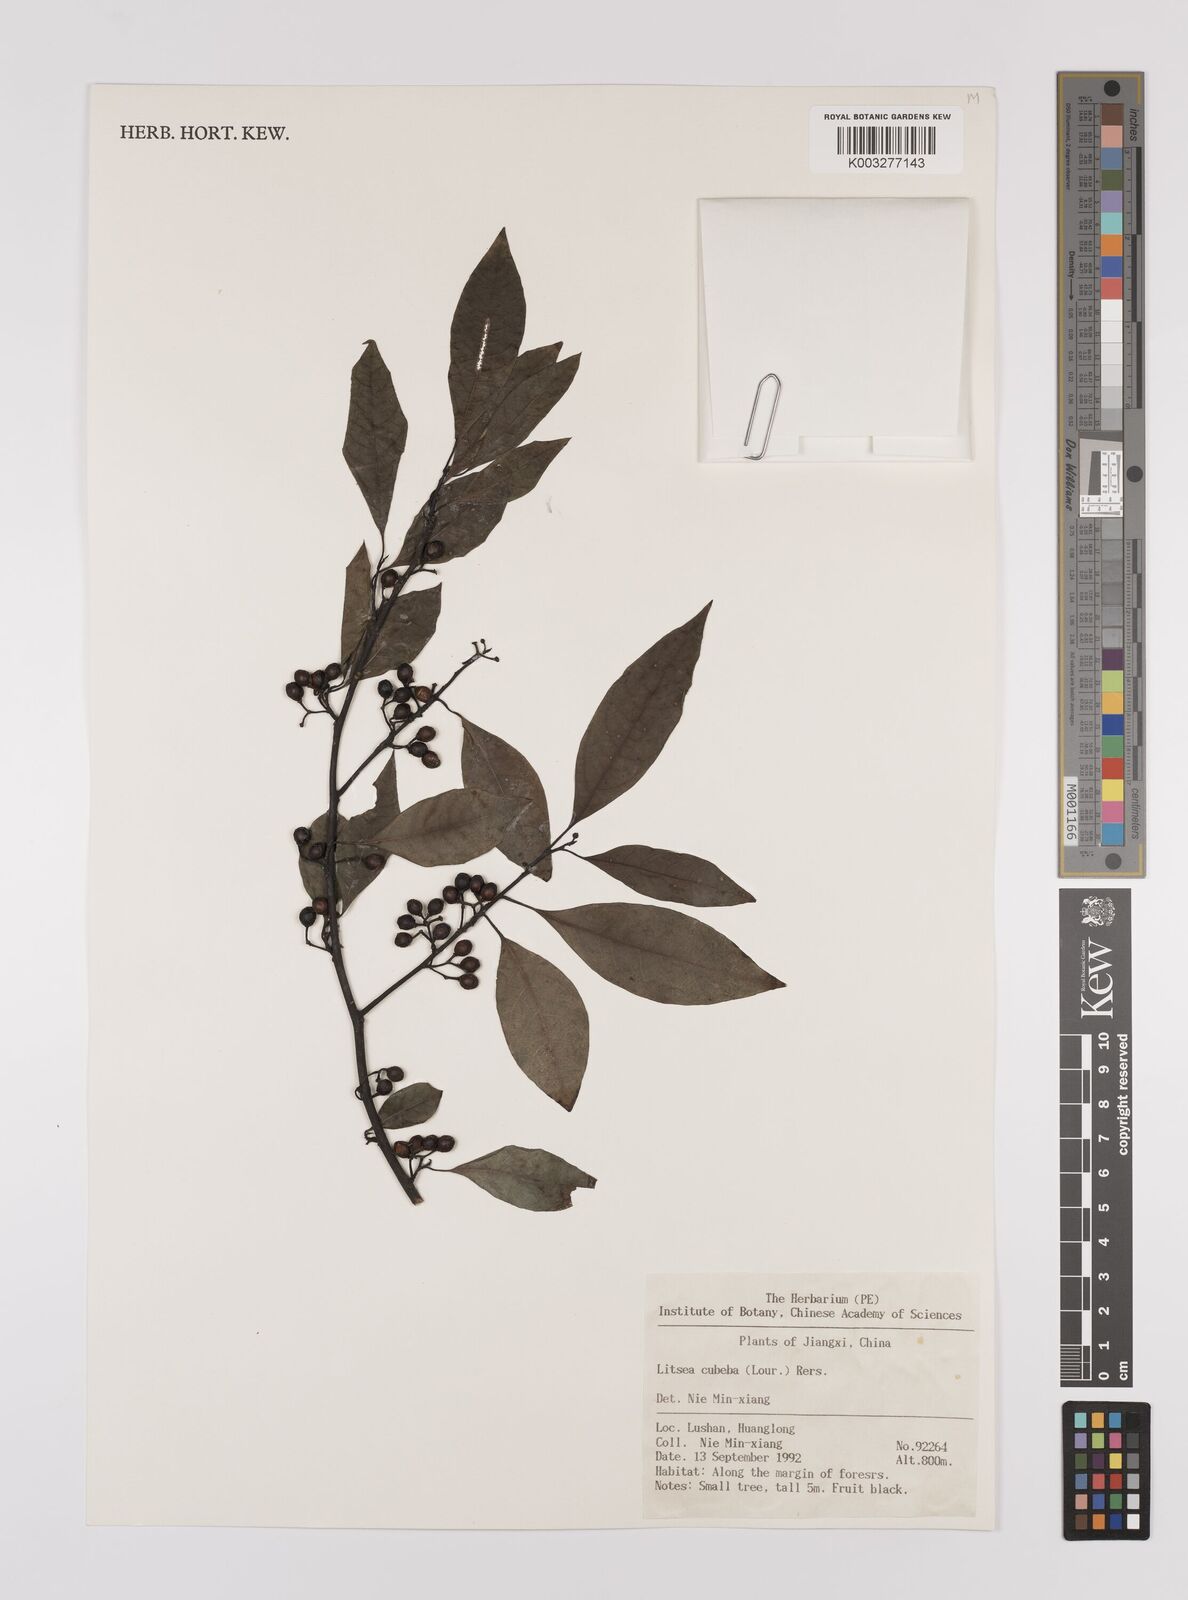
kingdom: Plantae
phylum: Tracheophyta
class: Magnoliopsida
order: Laurales
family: Lauraceae
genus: Litsea
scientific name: Litsea cubeba
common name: Mountain-pepper
